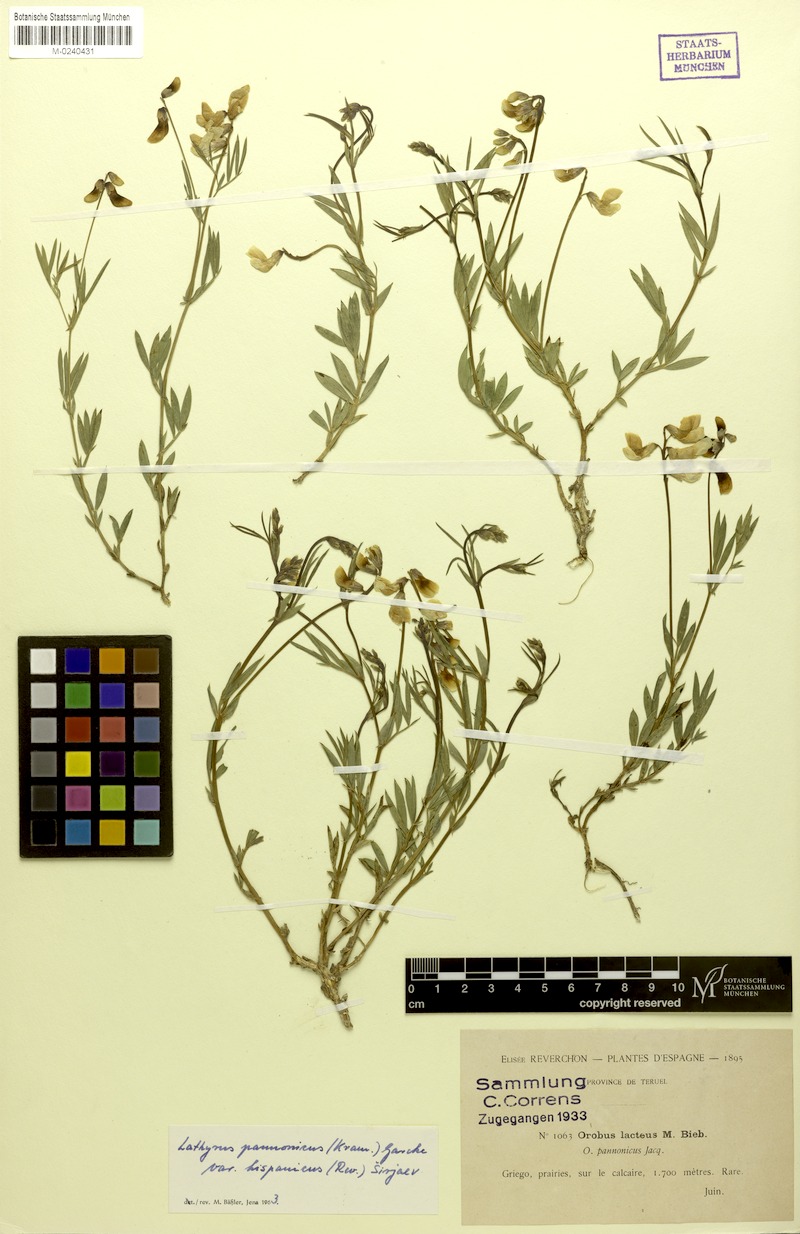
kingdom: Plantae
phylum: Tracheophyta
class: Magnoliopsida
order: Fabales
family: Fabaceae
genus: Lathyrus
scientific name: Lathyrus pannonicus
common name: Pea
